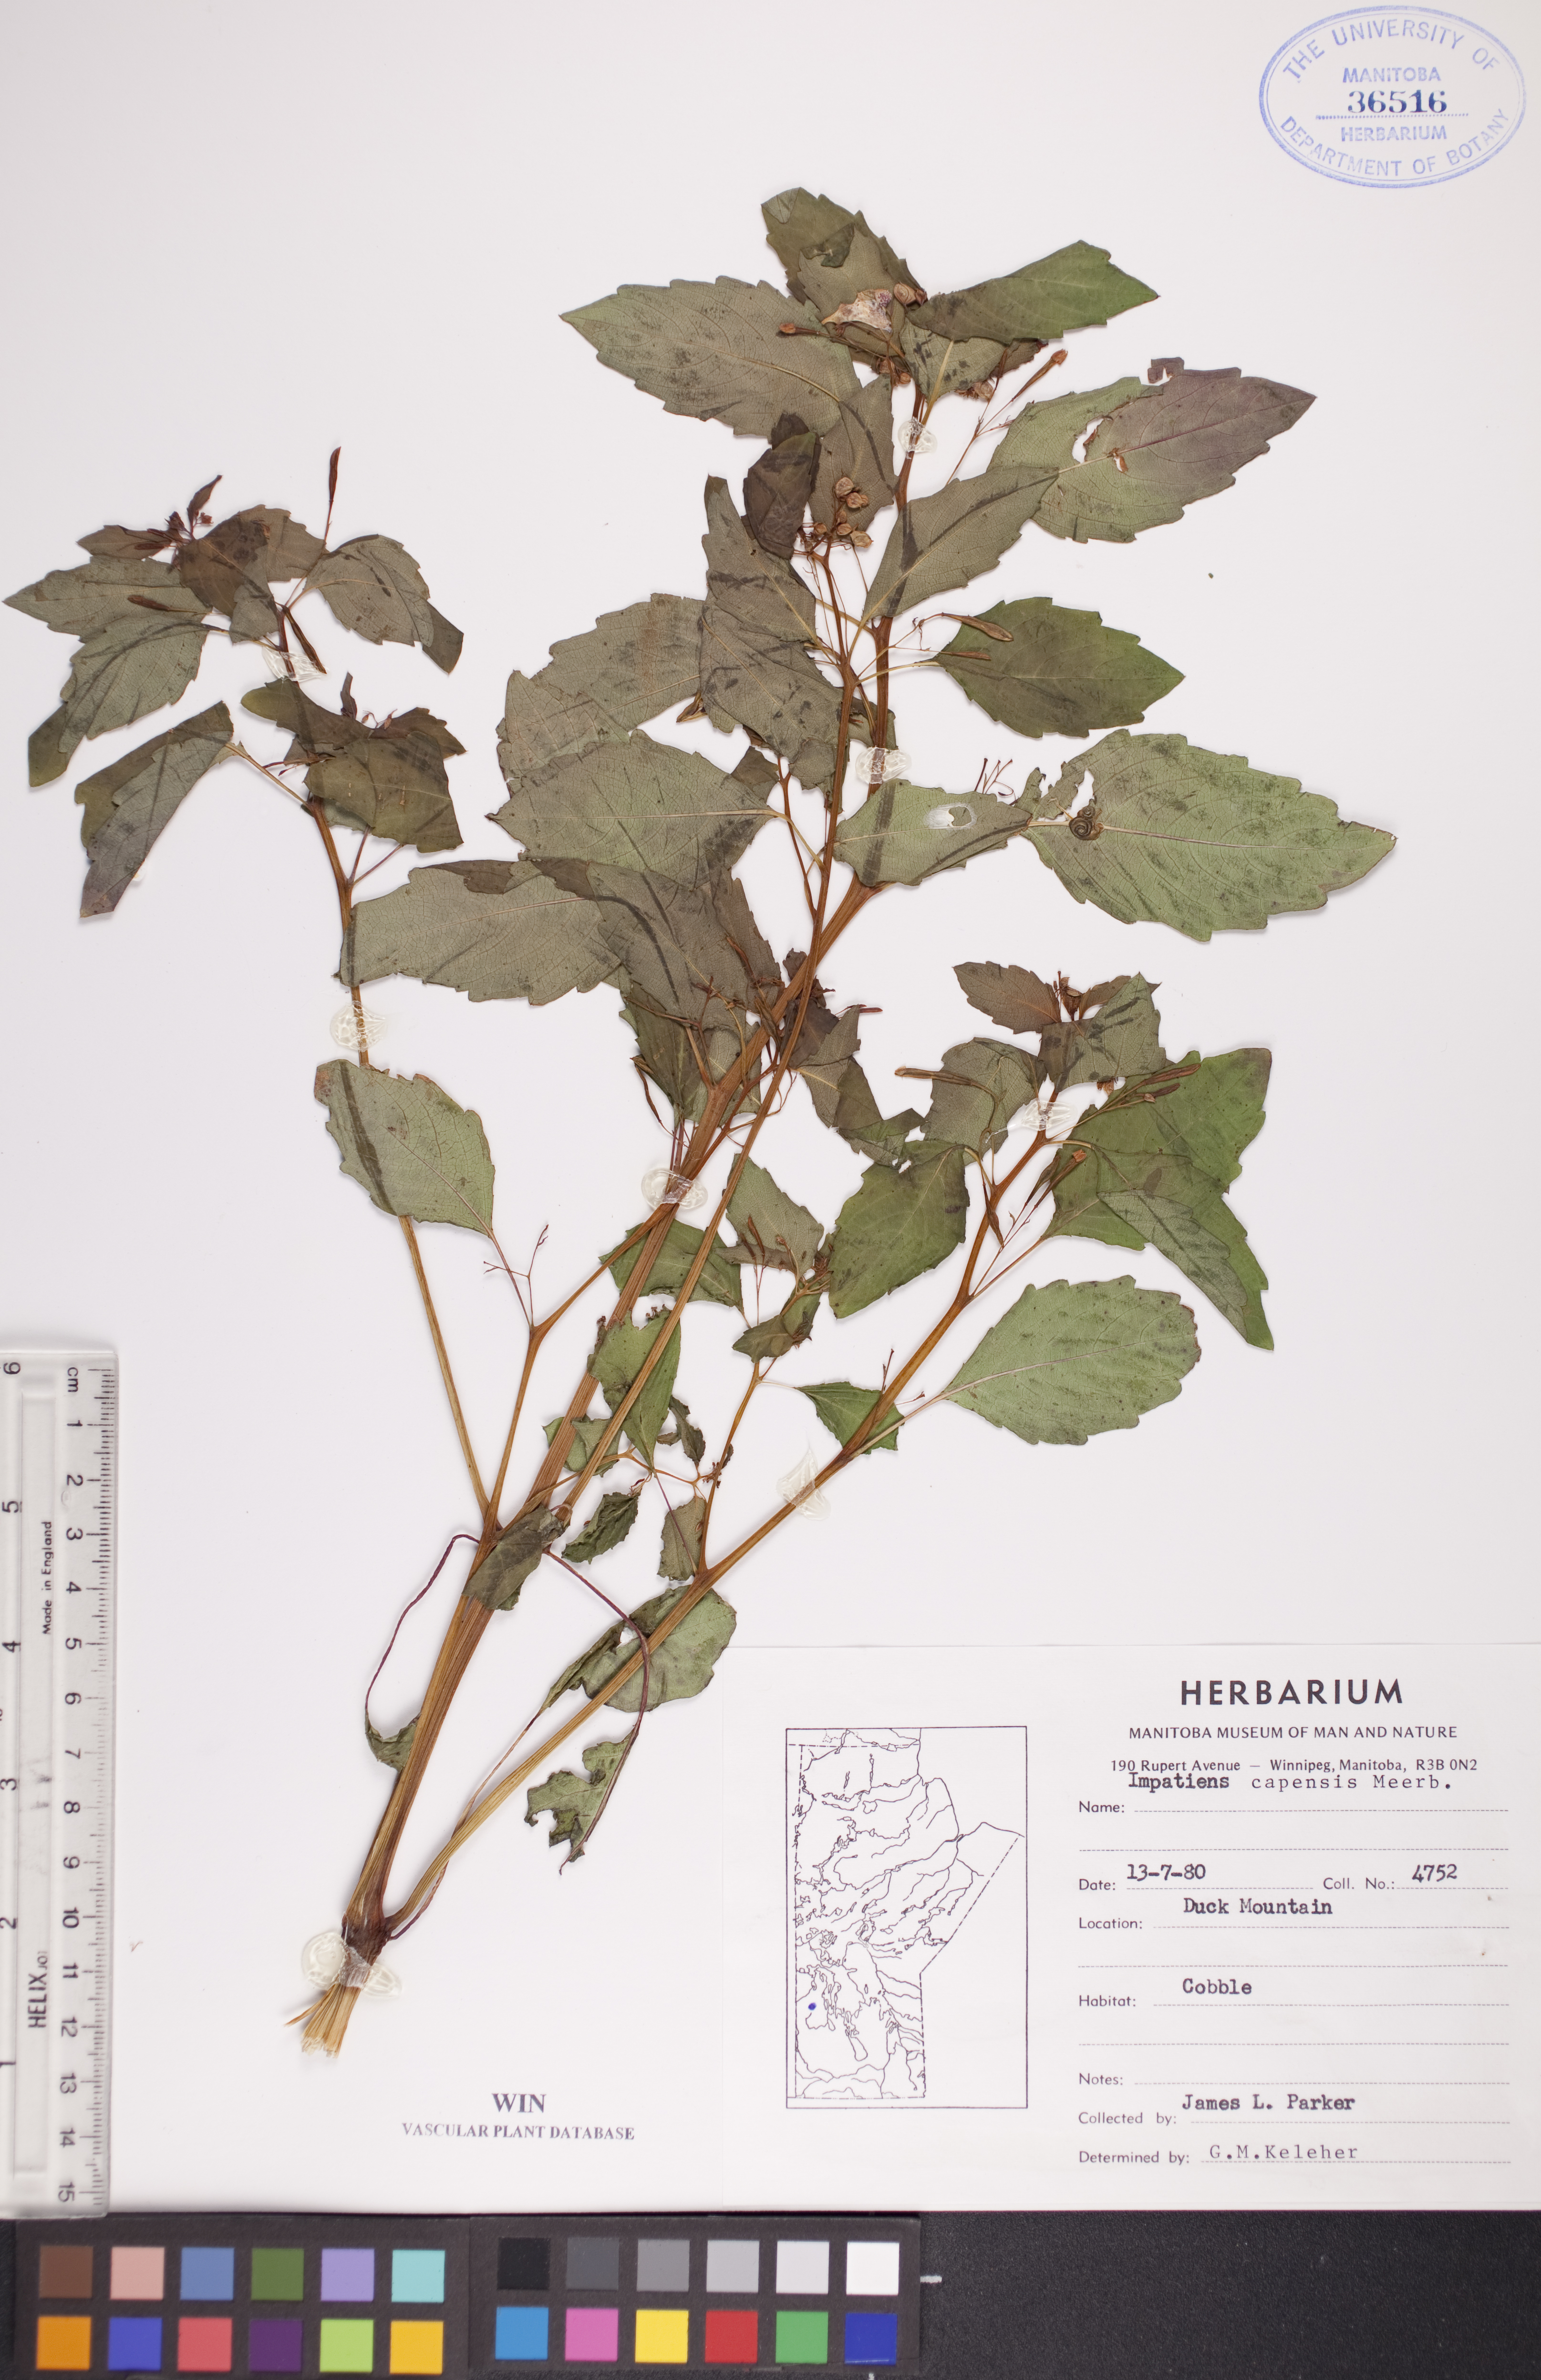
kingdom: Plantae
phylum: Tracheophyta
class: Magnoliopsida
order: Ericales
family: Balsaminaceae
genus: Impatiens
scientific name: Impatiens capensis
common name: Orange balsam
